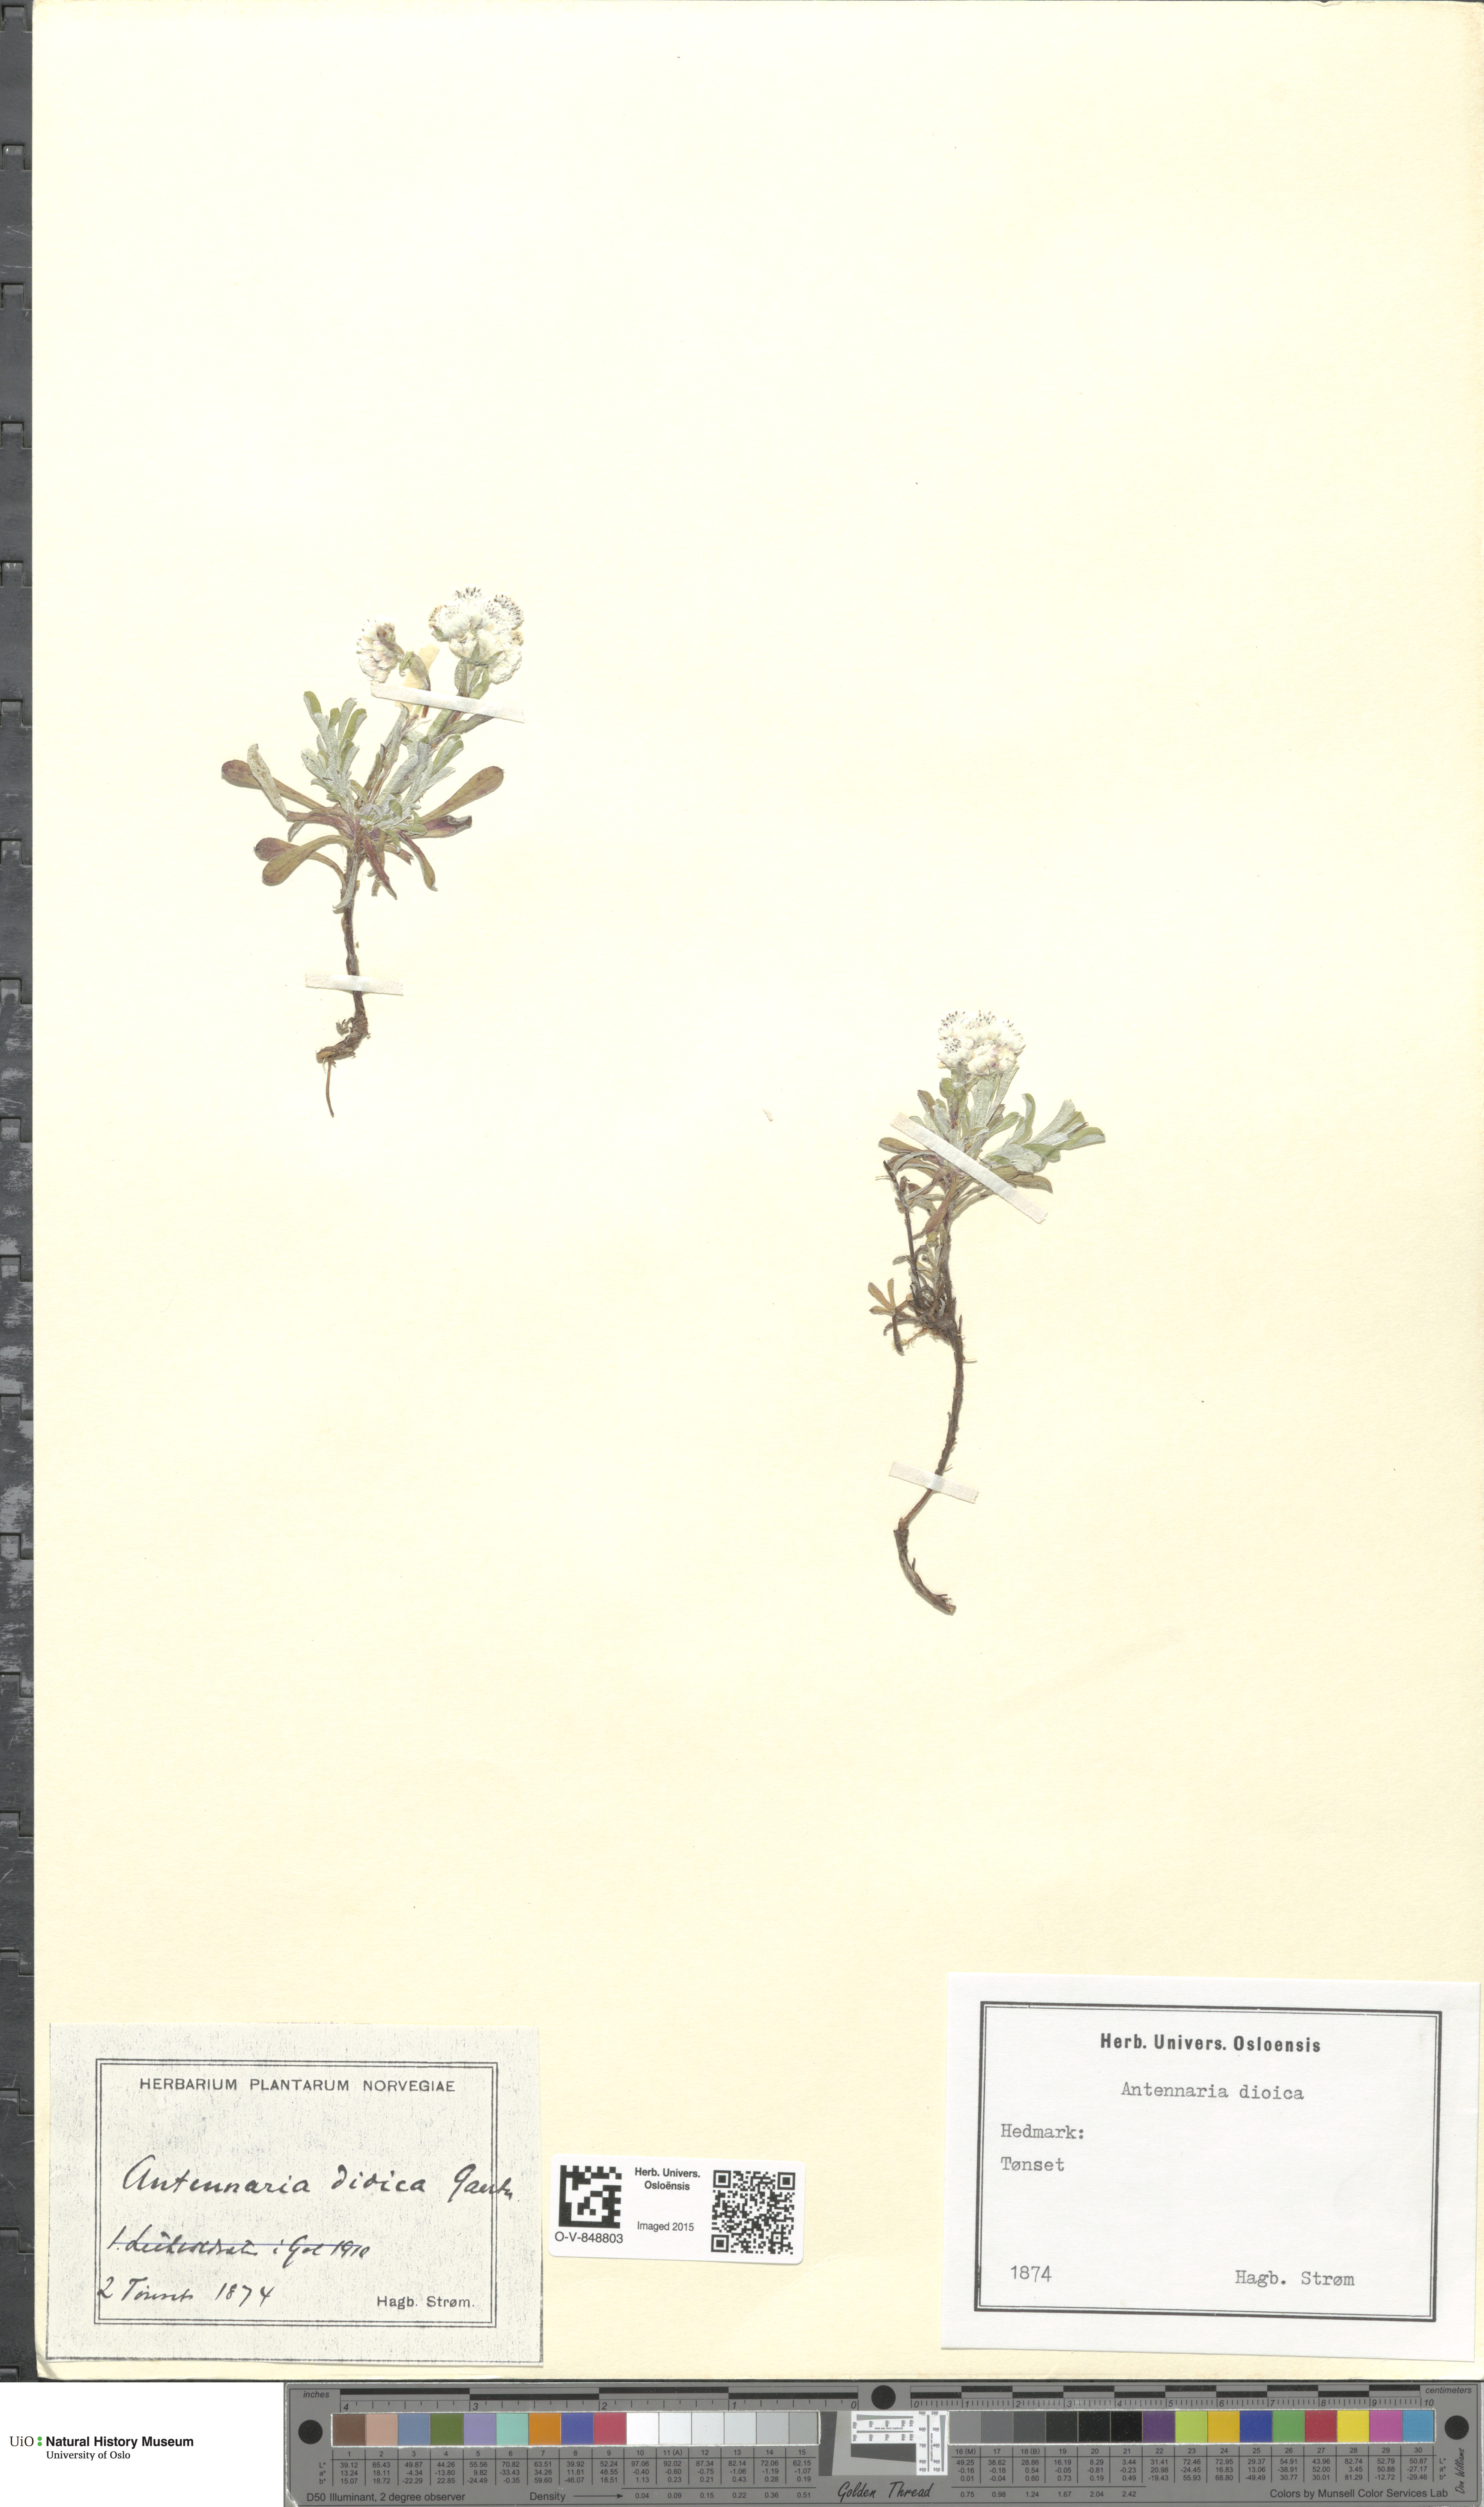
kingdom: Plantae
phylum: Tracheophyta
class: Magnoliopsida
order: Asterales
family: Asteraceae
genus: Antennaria
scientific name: Antennaria dioica
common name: Mountain everlasting
